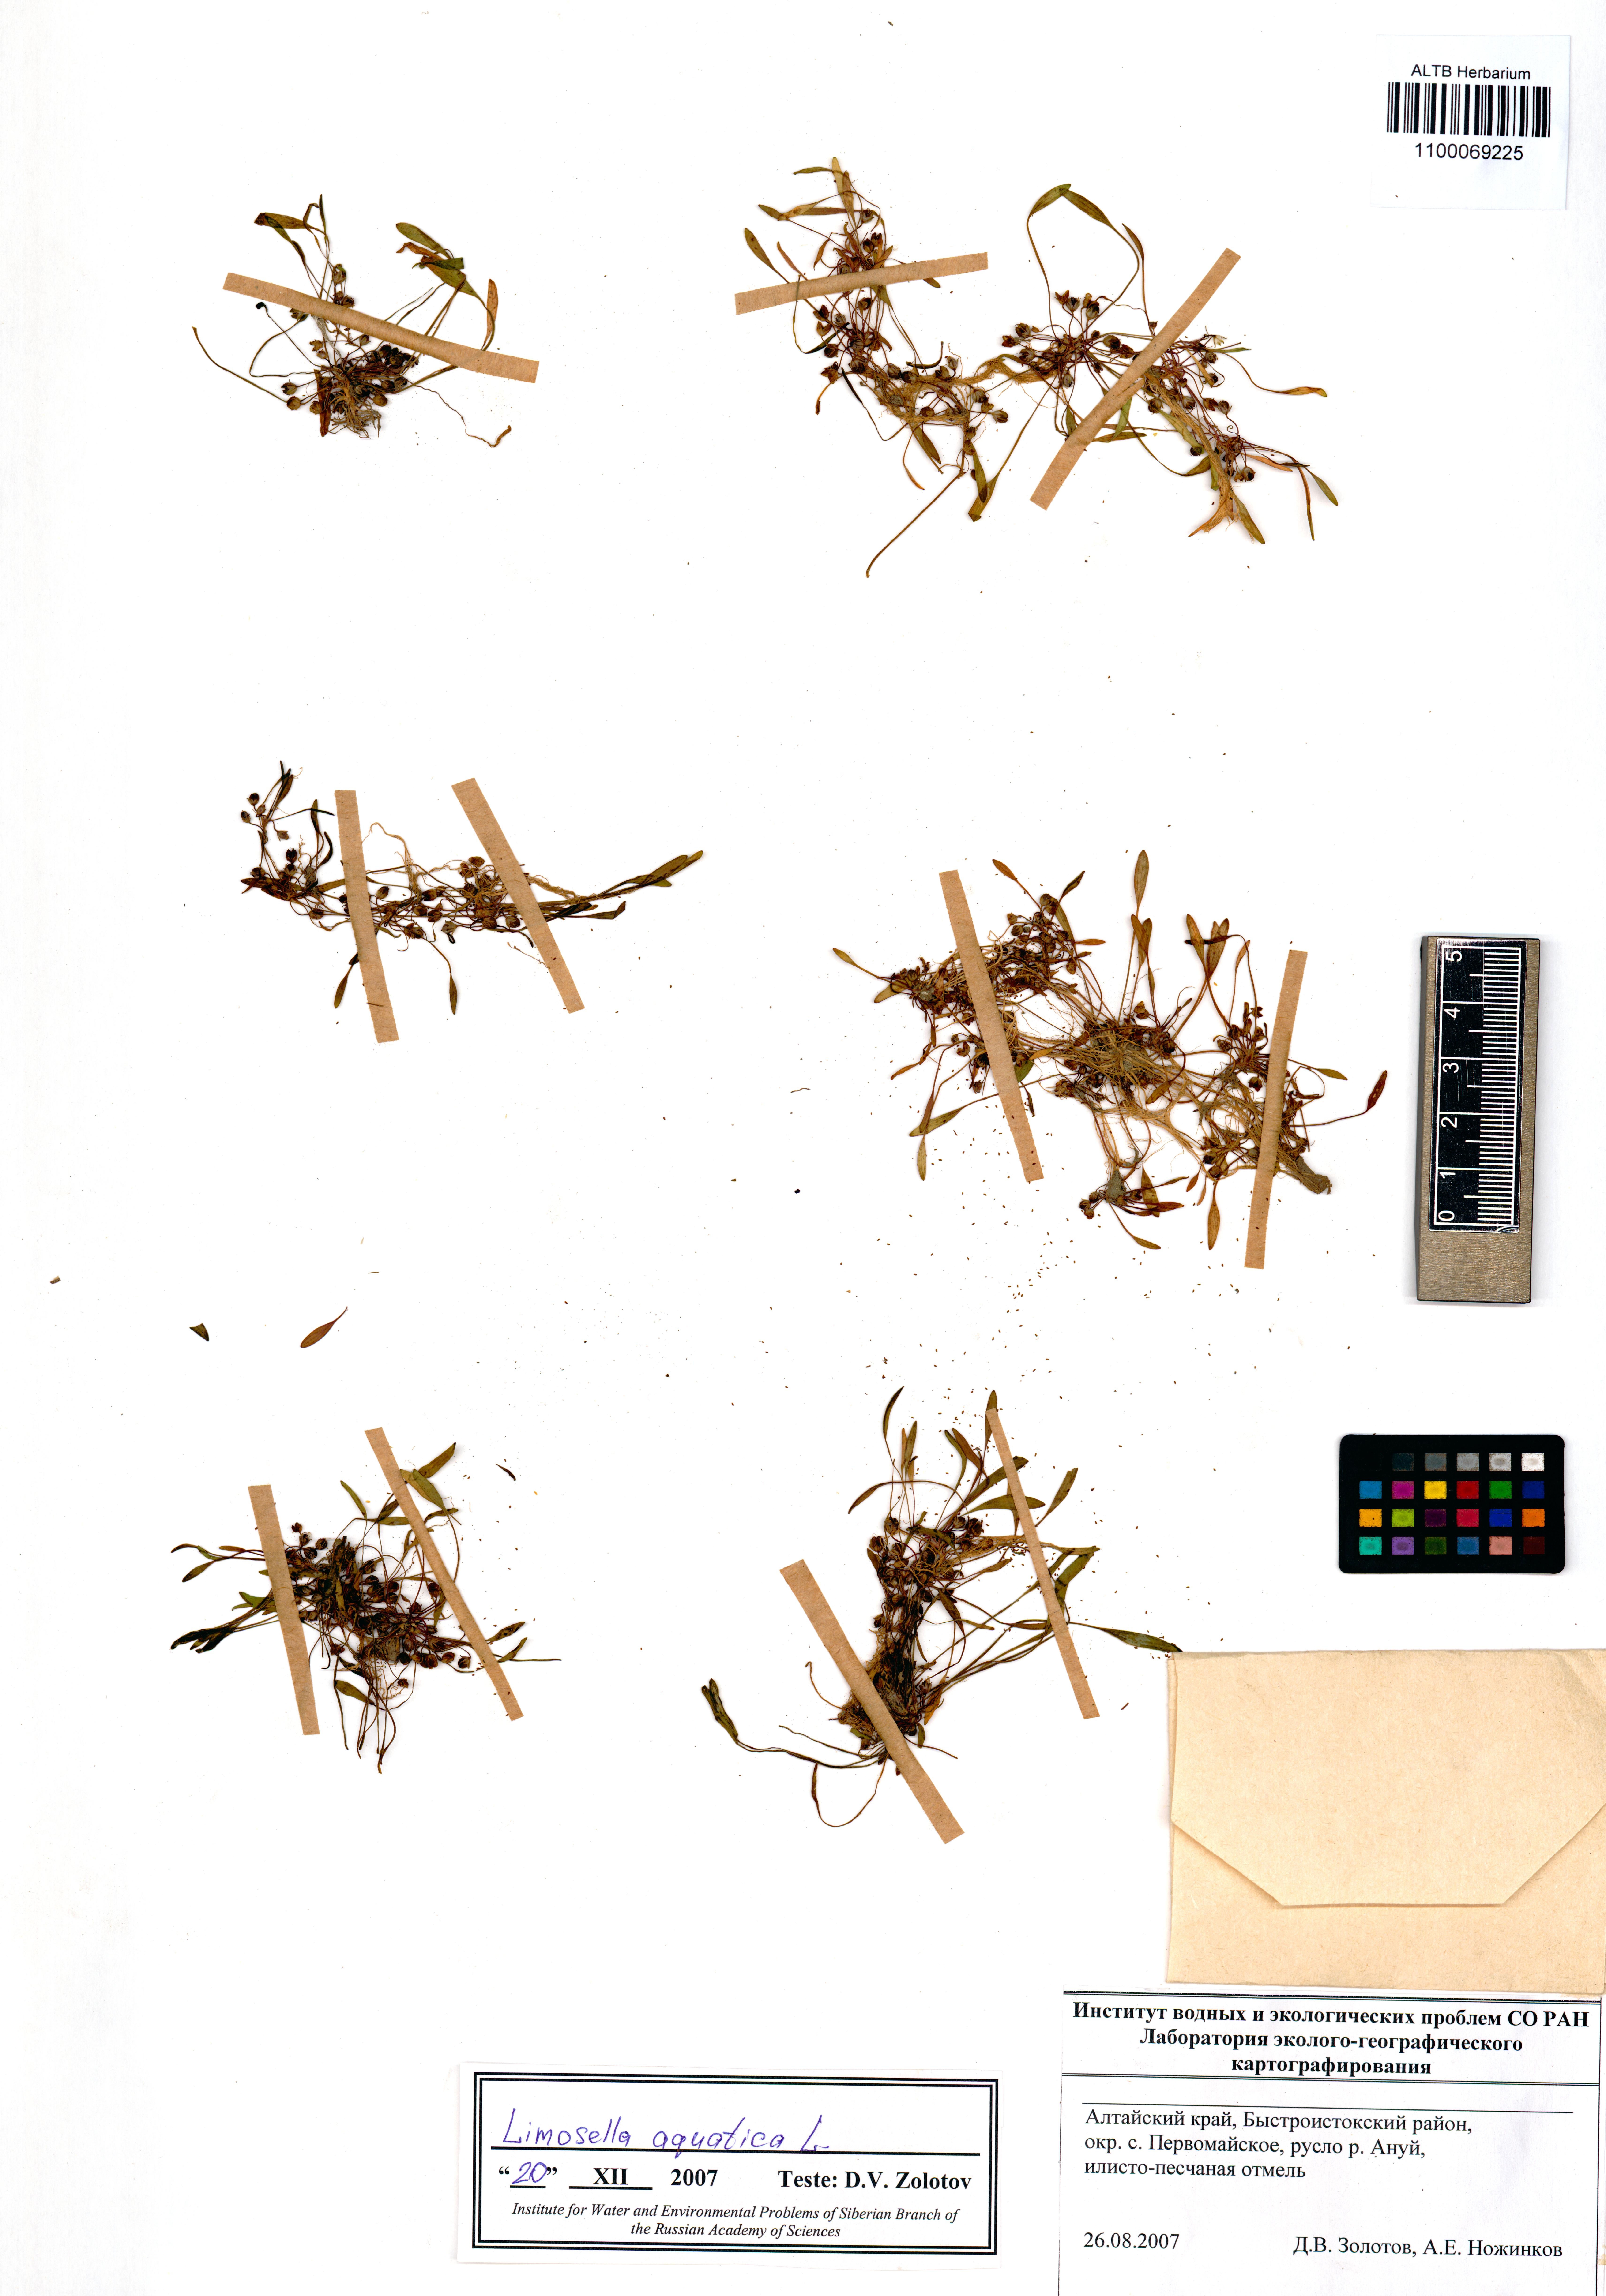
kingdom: Plantae
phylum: Tracheophyta
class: Magnoliopsida
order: Lamiales
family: Scrophulariaceae
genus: Limosella
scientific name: Limosella aquatica
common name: Mudwort
